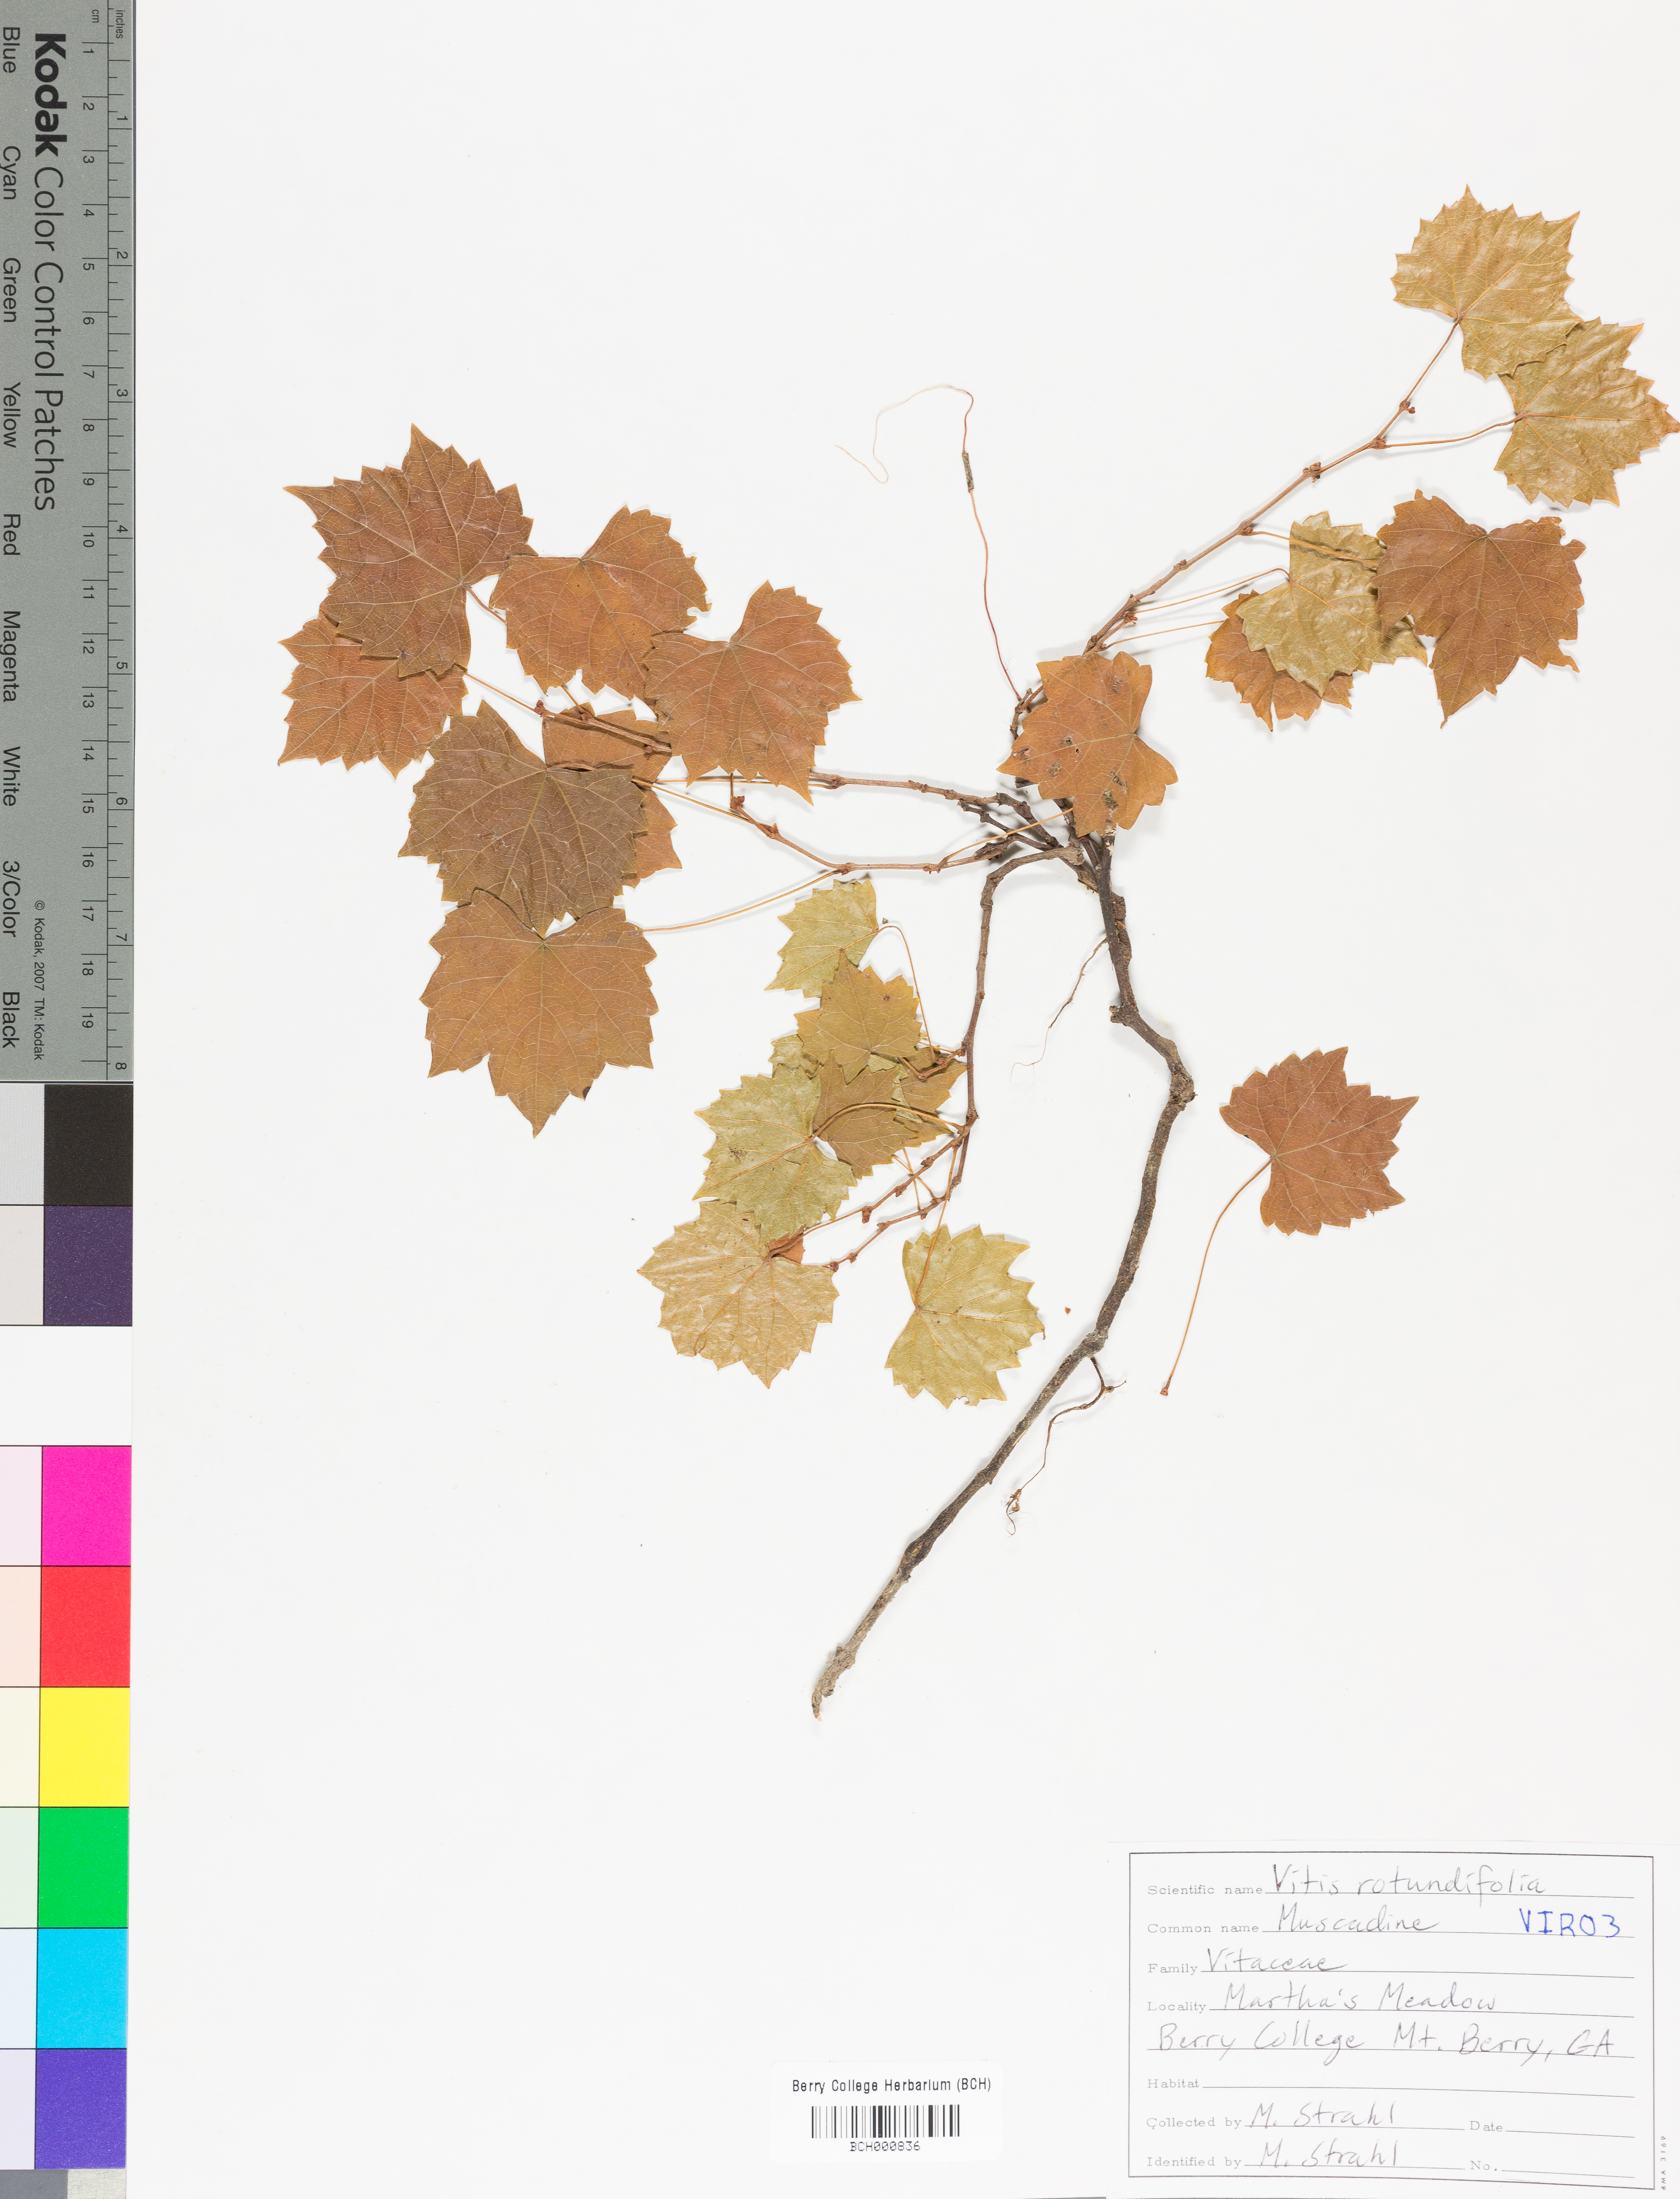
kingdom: Plantae
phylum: Tracheophyta
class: Magnoliopsida
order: Vitales
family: Vitaceae
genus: Vitis
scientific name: Vitis rotundifolia
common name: Muscadine grape
